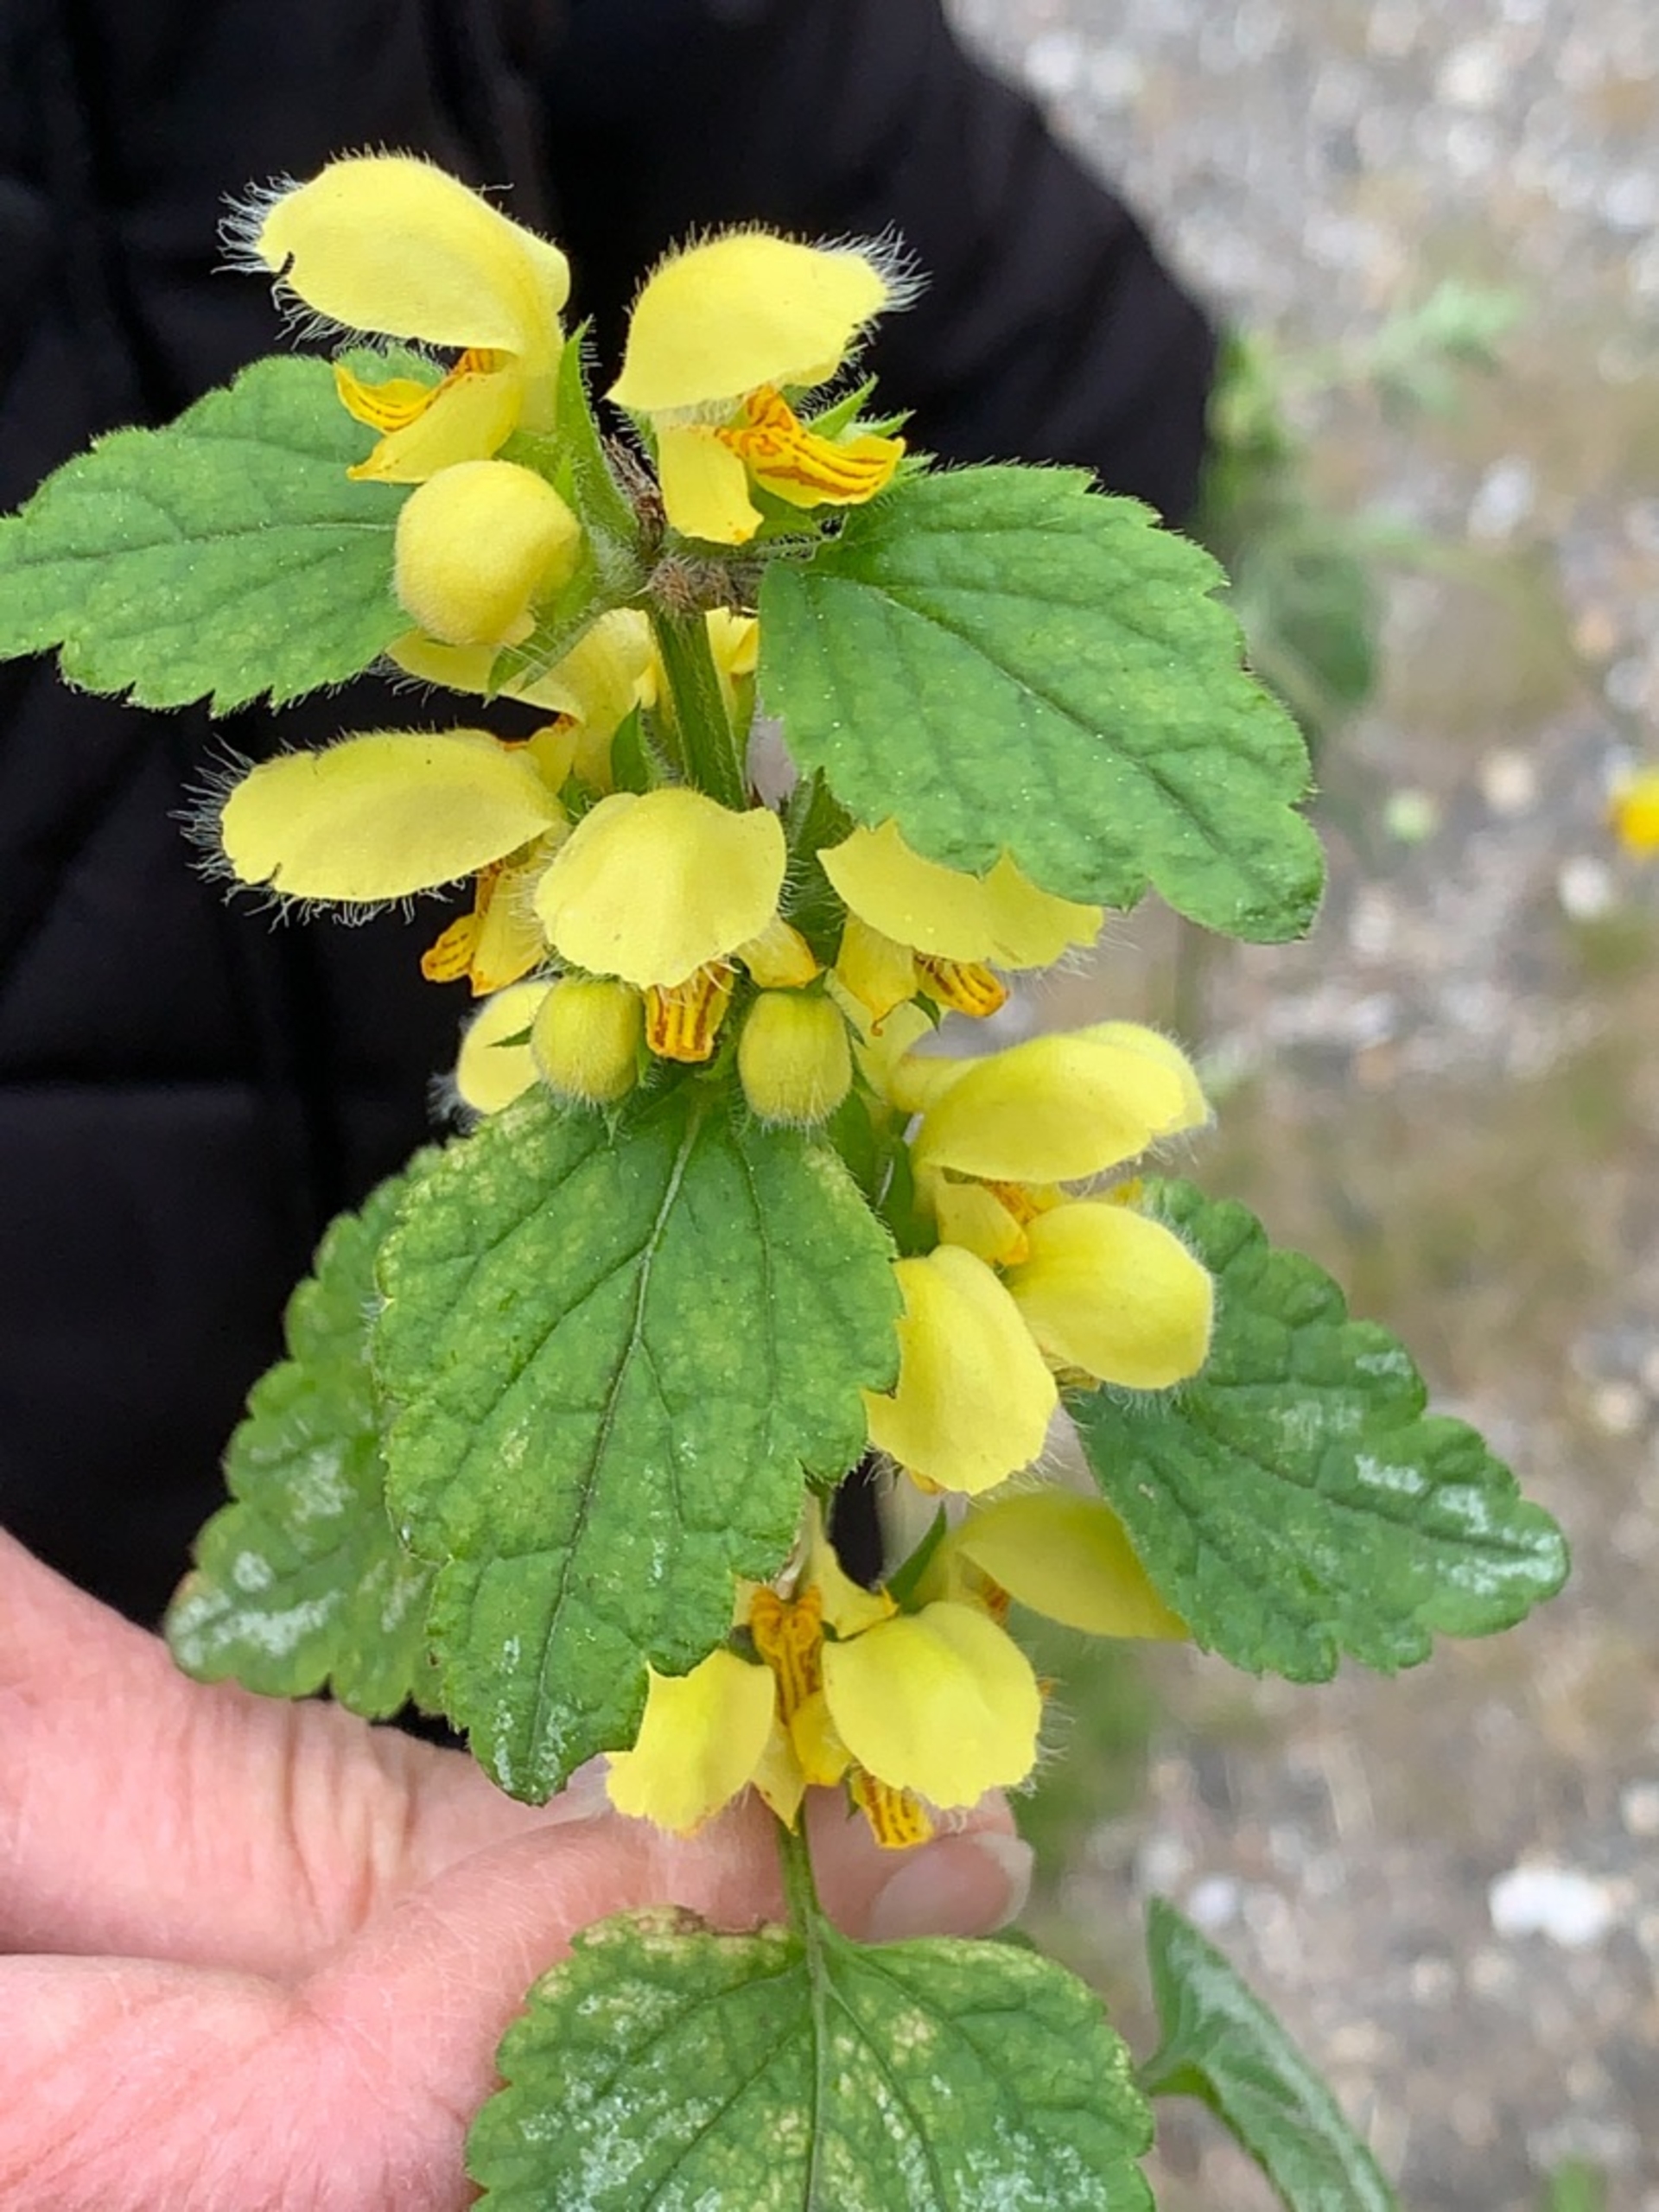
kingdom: Plantae
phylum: Tracheophyta
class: Magnoliopsida
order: Lamiales
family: Lamiaceae
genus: Lamium
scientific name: Lamium galeobdolon
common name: Guldnælde
